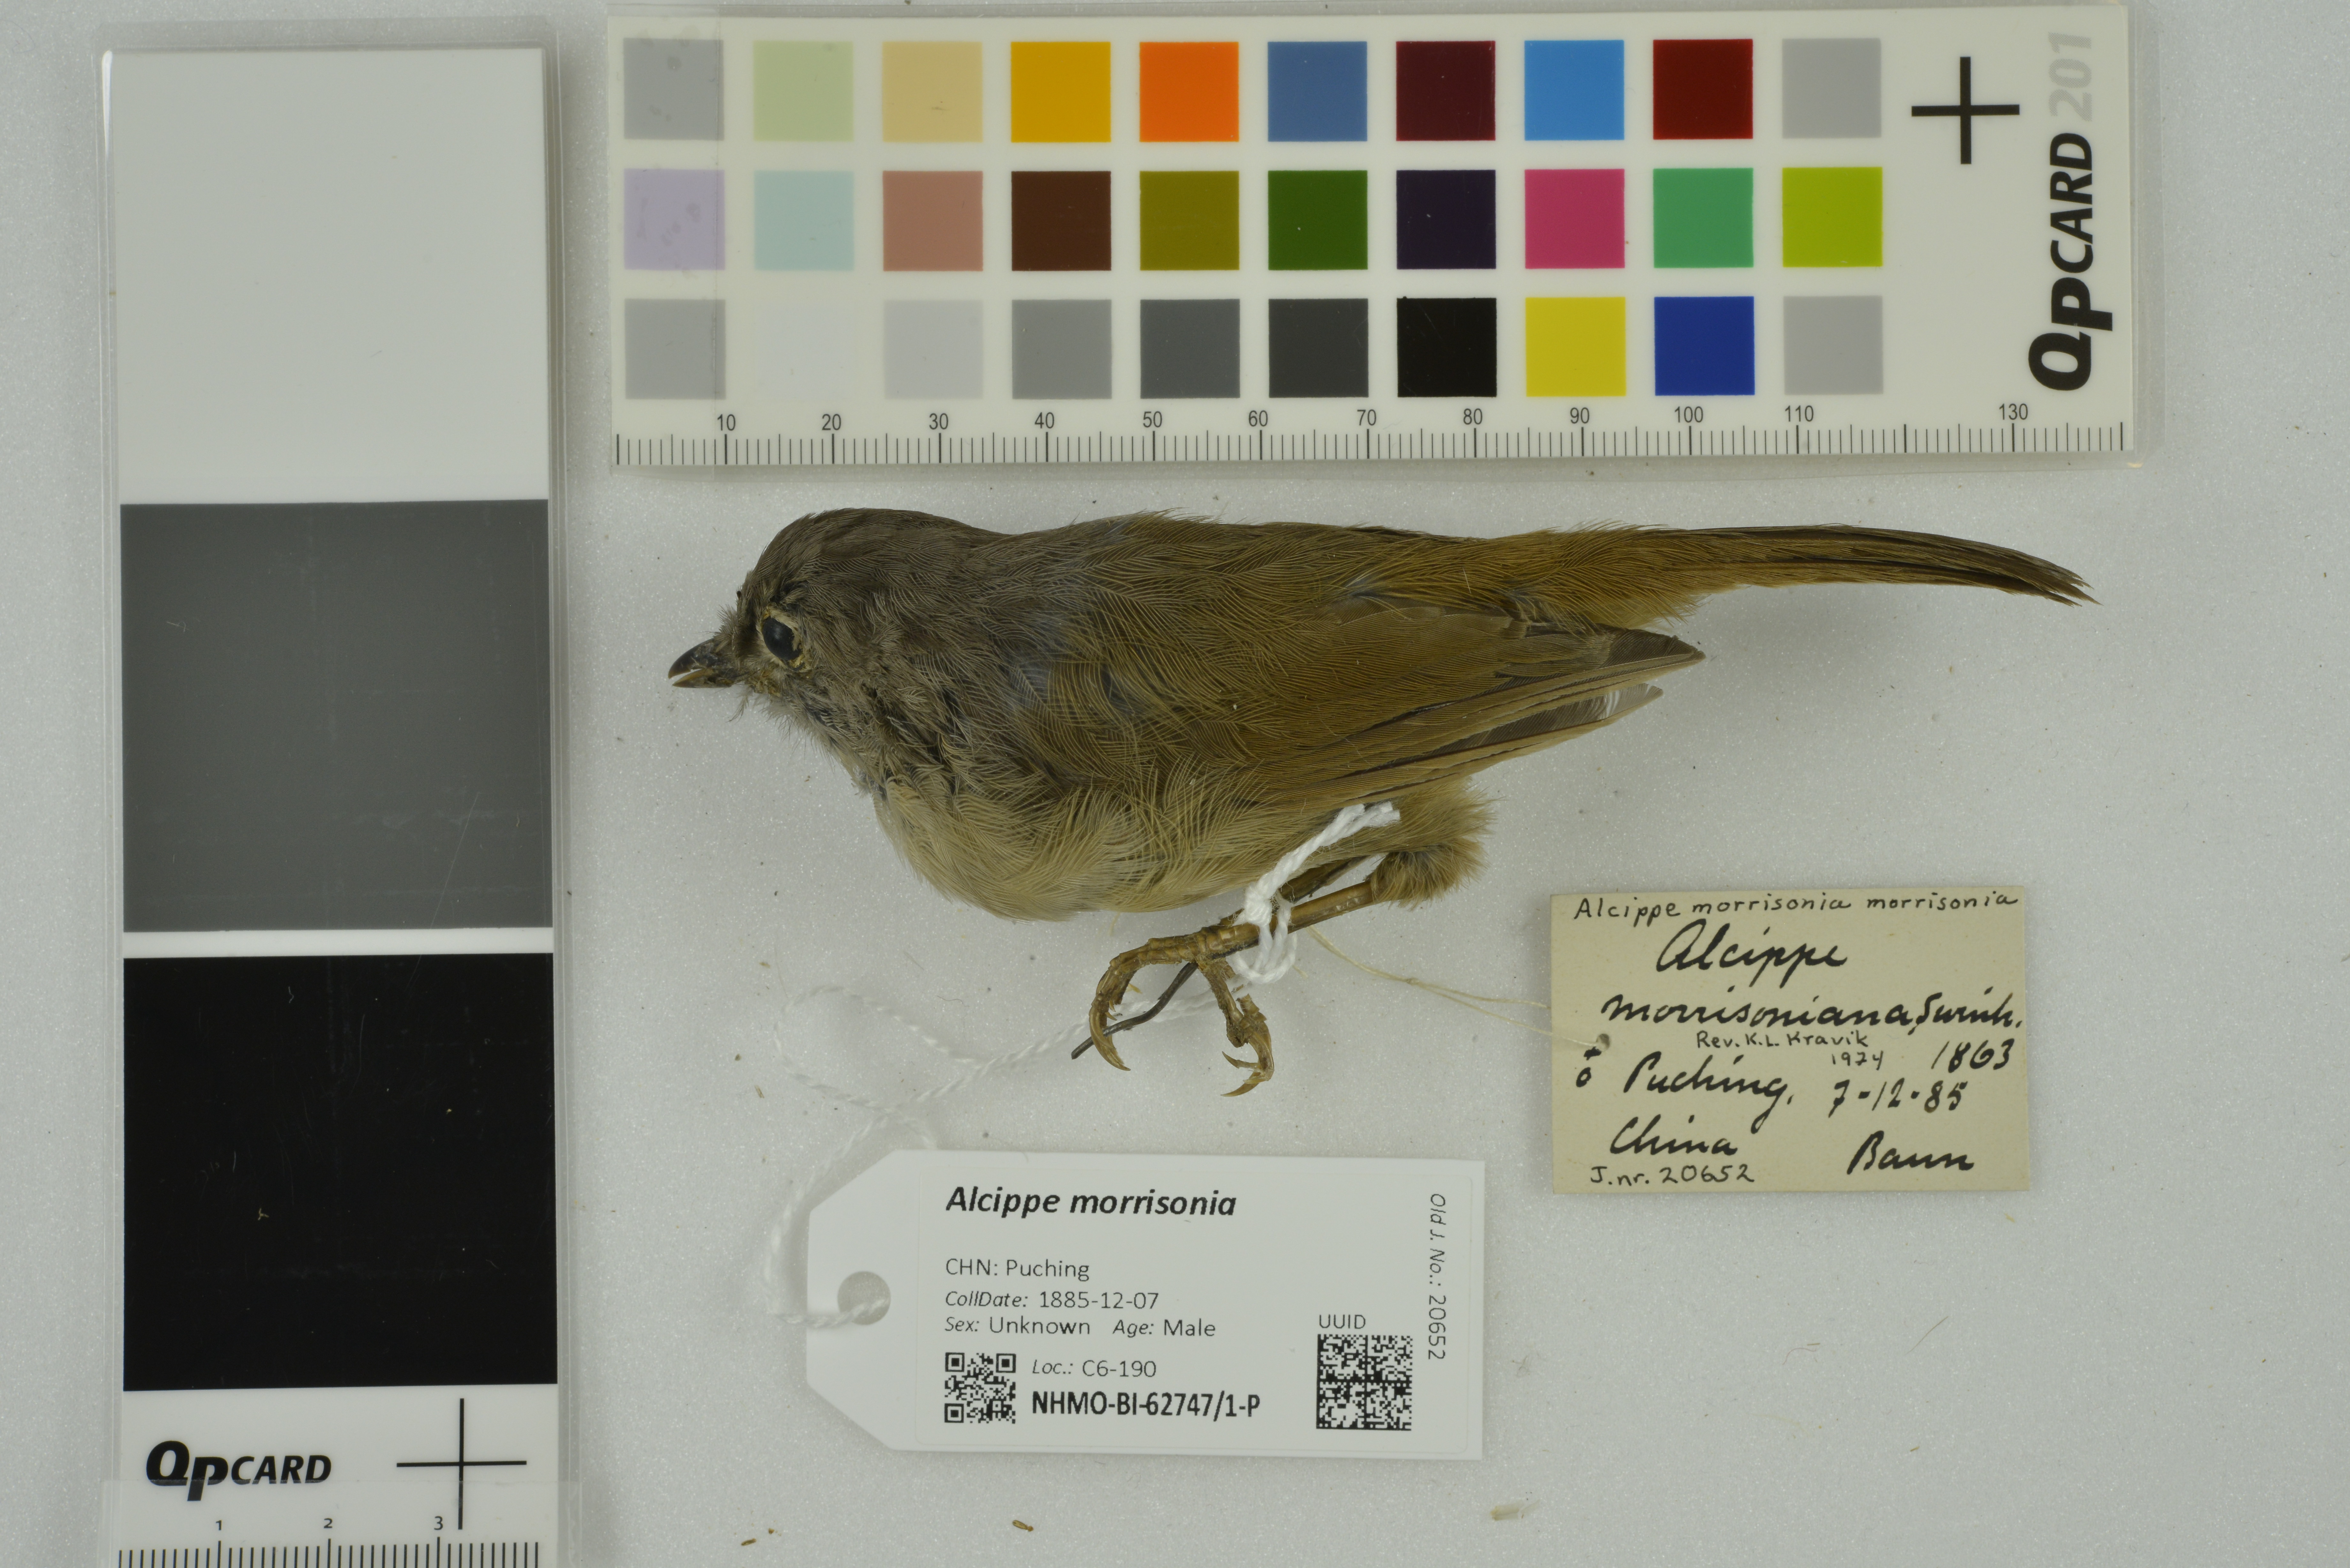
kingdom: Animalia
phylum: Chordata
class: Aves
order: Passeriformes
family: Pellorneidae
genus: Alcippe
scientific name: Alcippe morrisonia
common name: Grey-cheeked fulvetta
